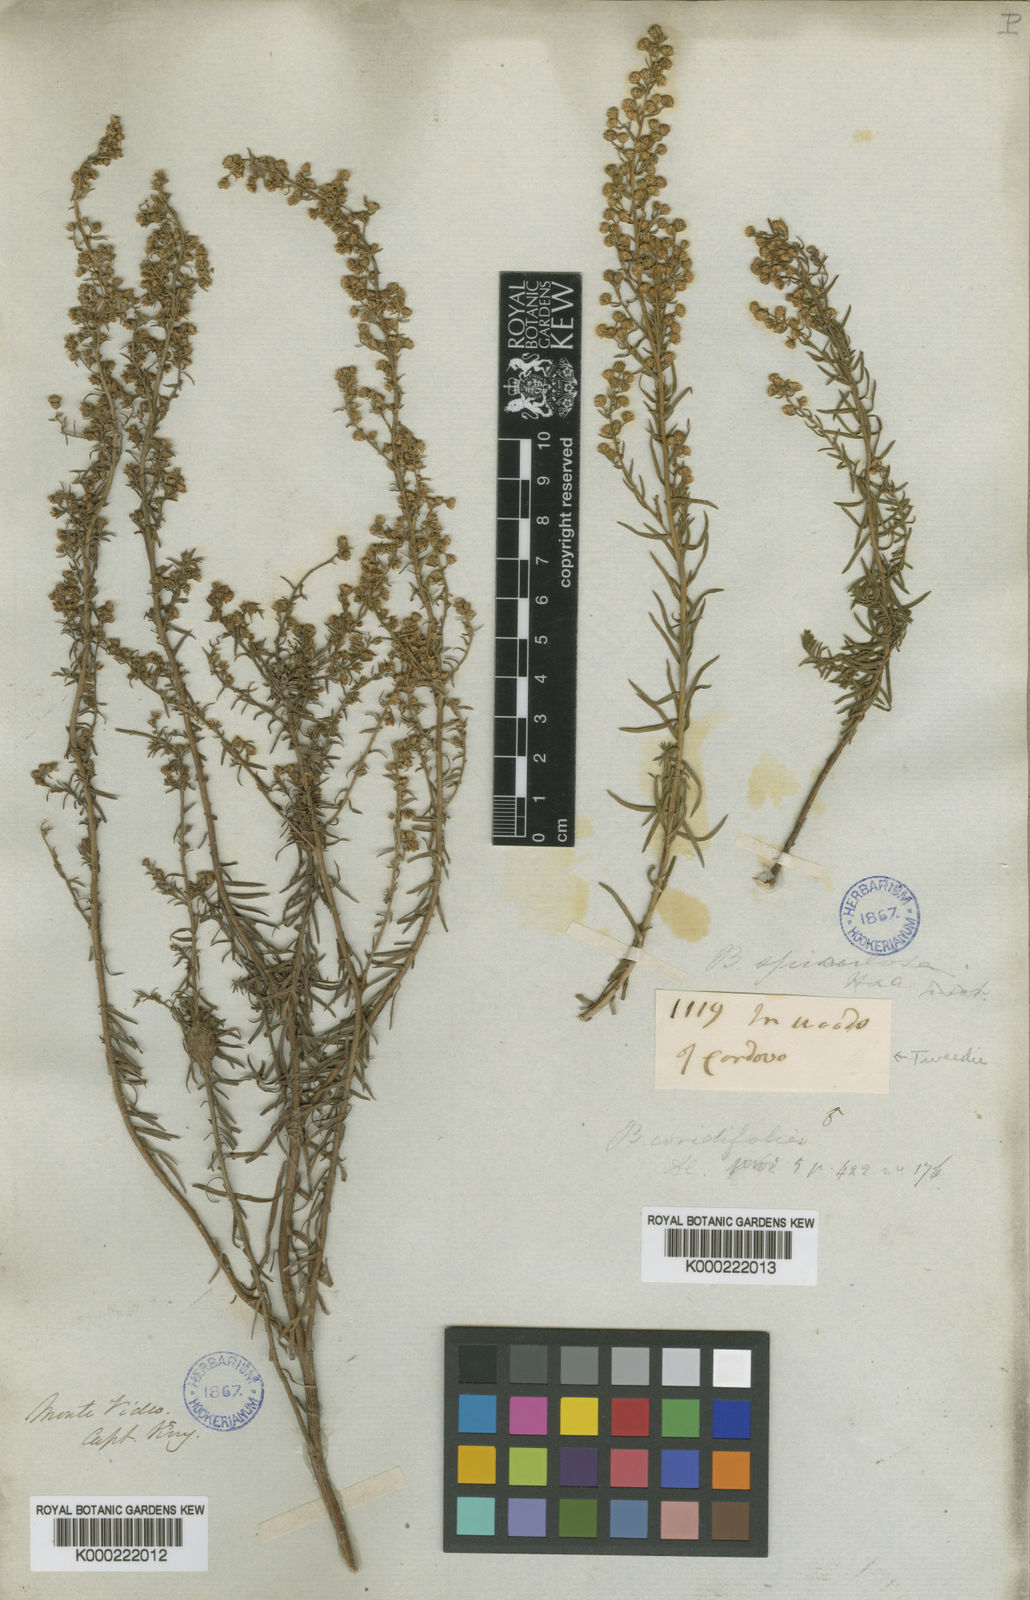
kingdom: Plantae
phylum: Tracheophyta
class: Magnoliopsida
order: Asterales
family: Asteraceae
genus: Baccharis
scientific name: Baccharis coridifolia
